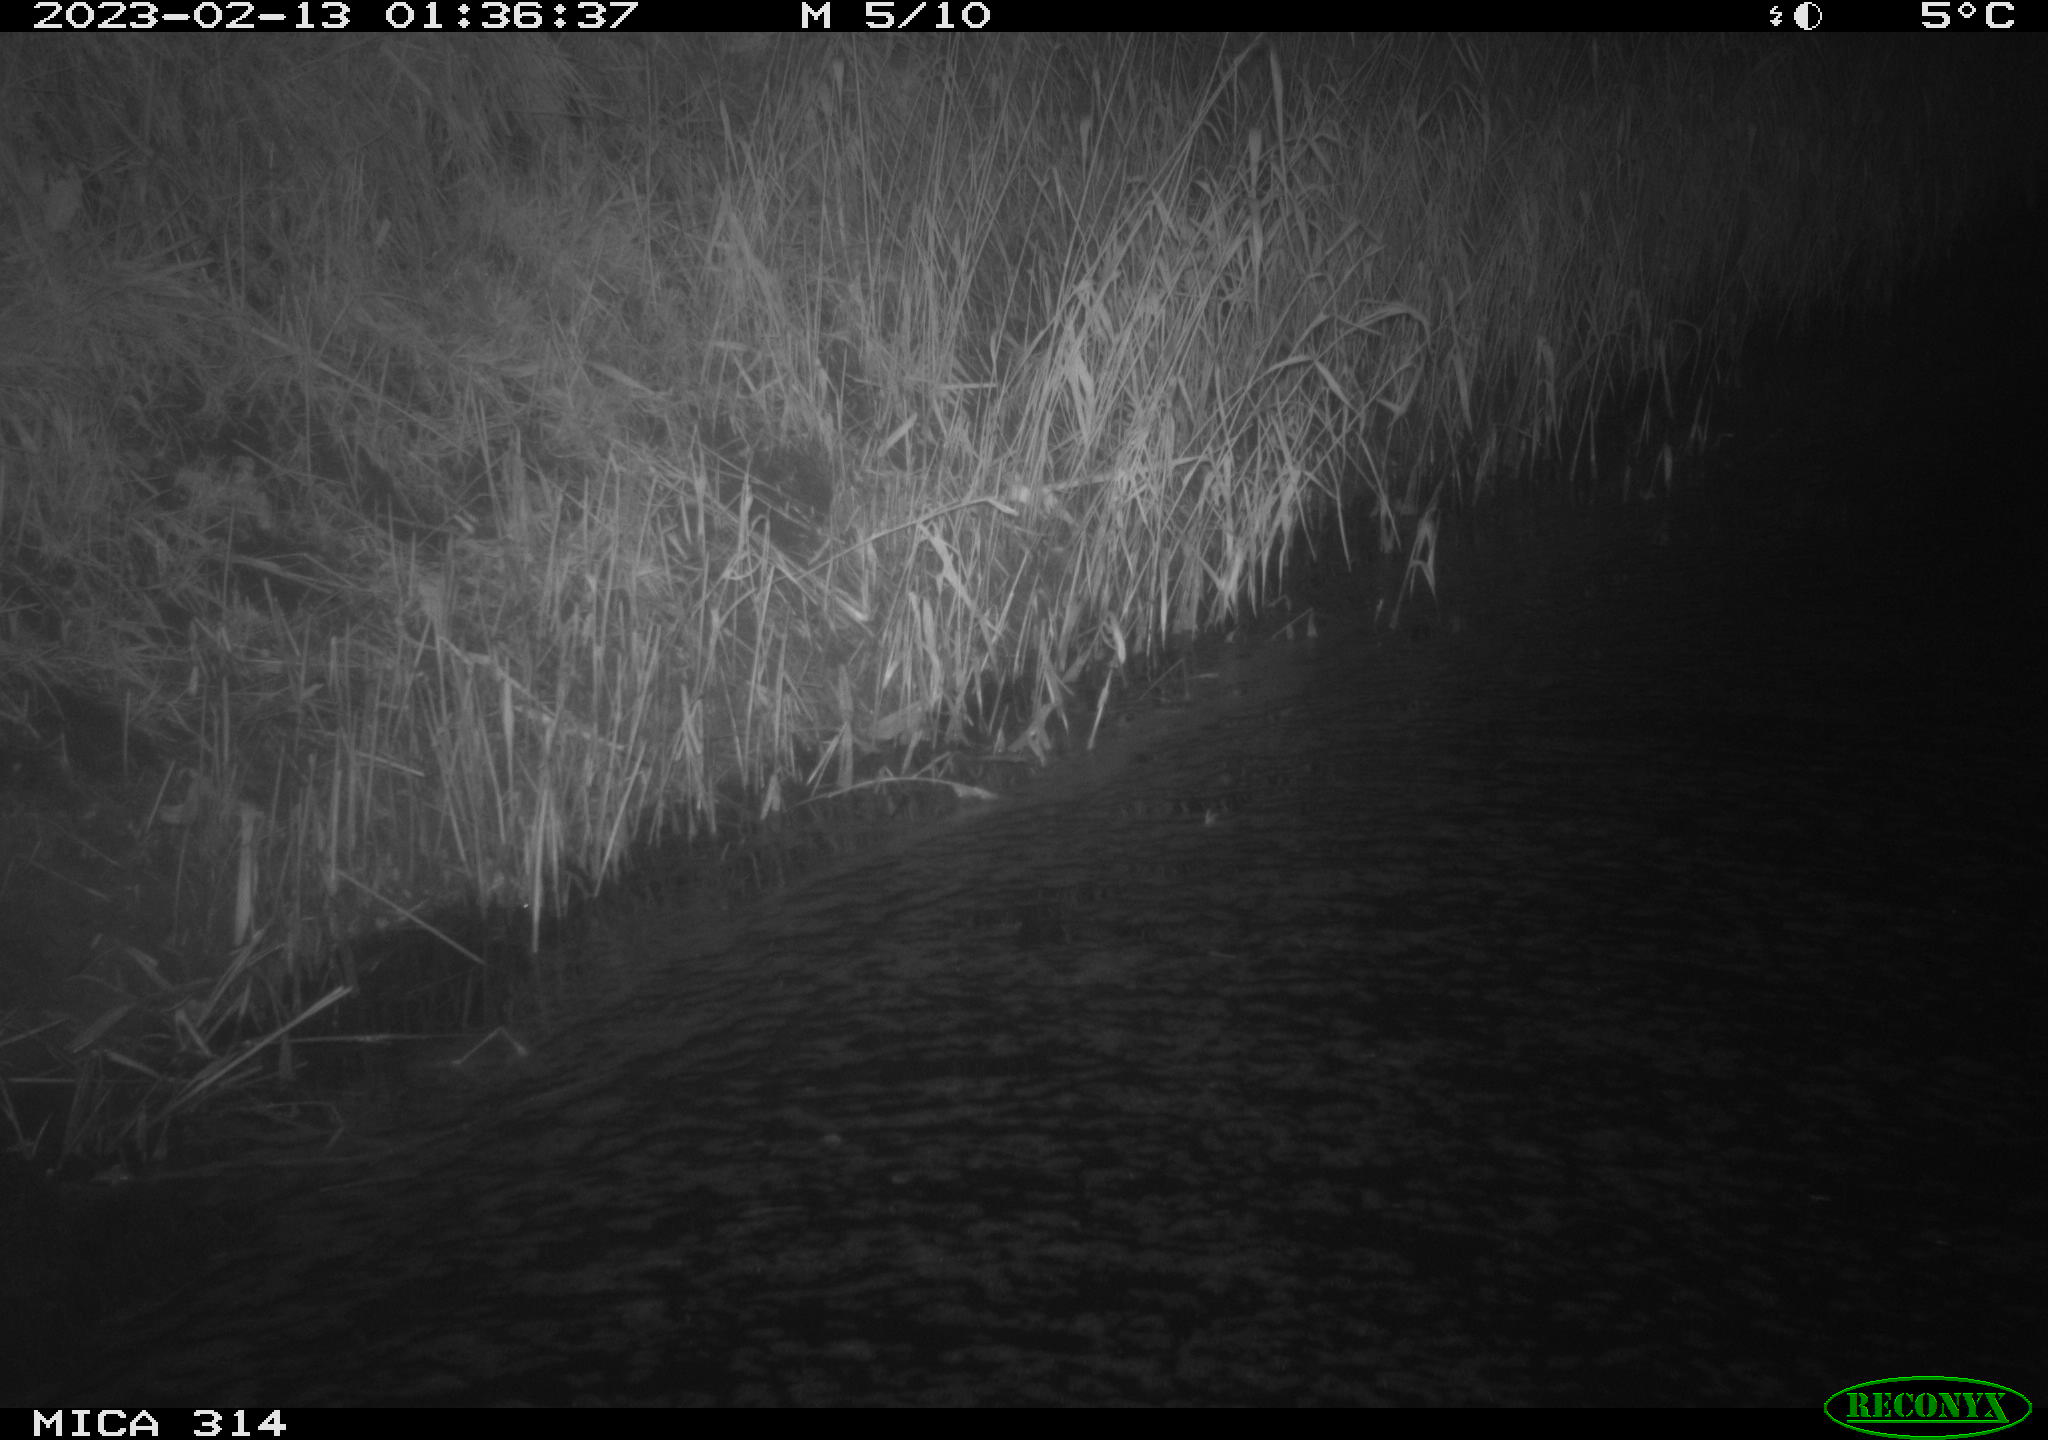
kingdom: Animalia
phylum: Chordata
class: Mammalia
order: Rodentia
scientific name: Rodentia
